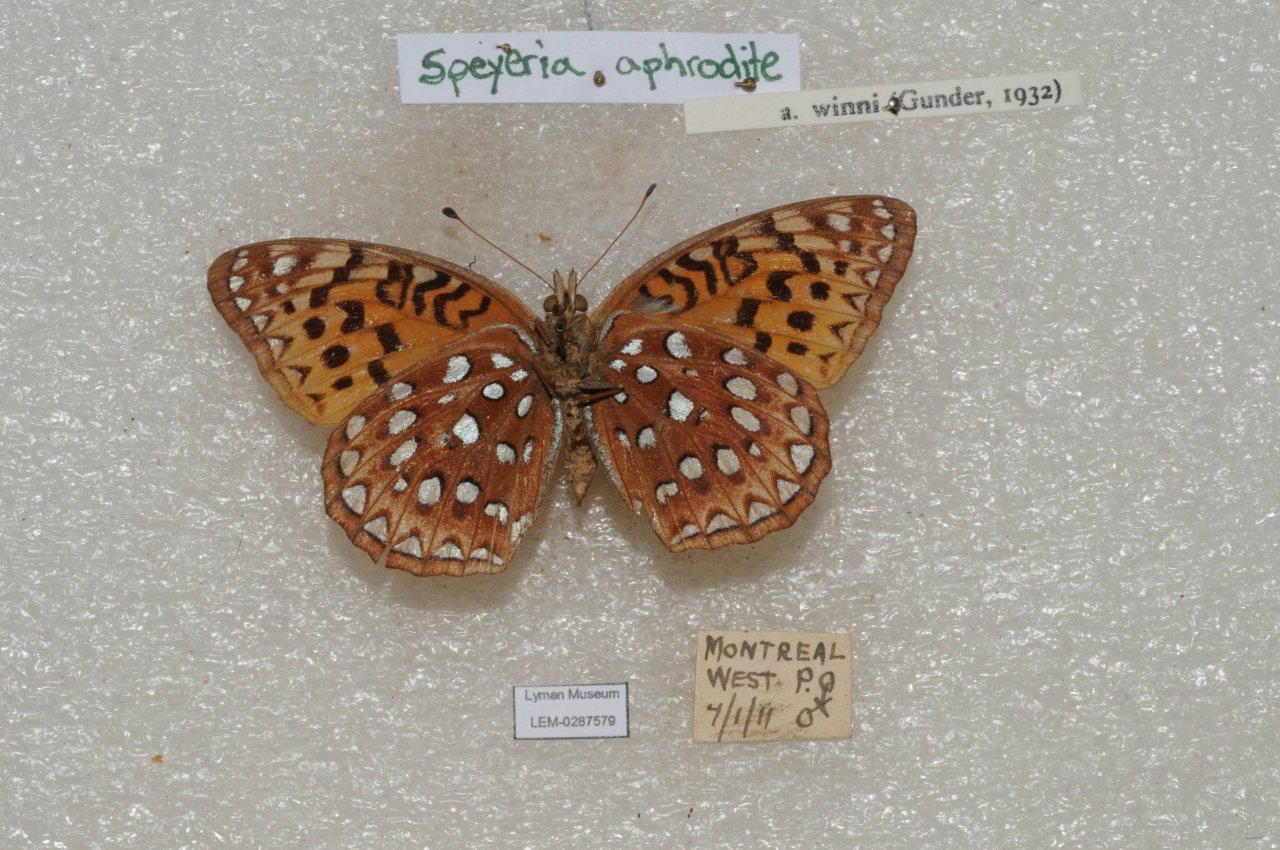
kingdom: Animalia
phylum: Arthropoda
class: Insecta
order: Lepidoptera
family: Nymphalidae
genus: Speyeria
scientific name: Speyeria aphrodite
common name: Aphrodite Fritillary
